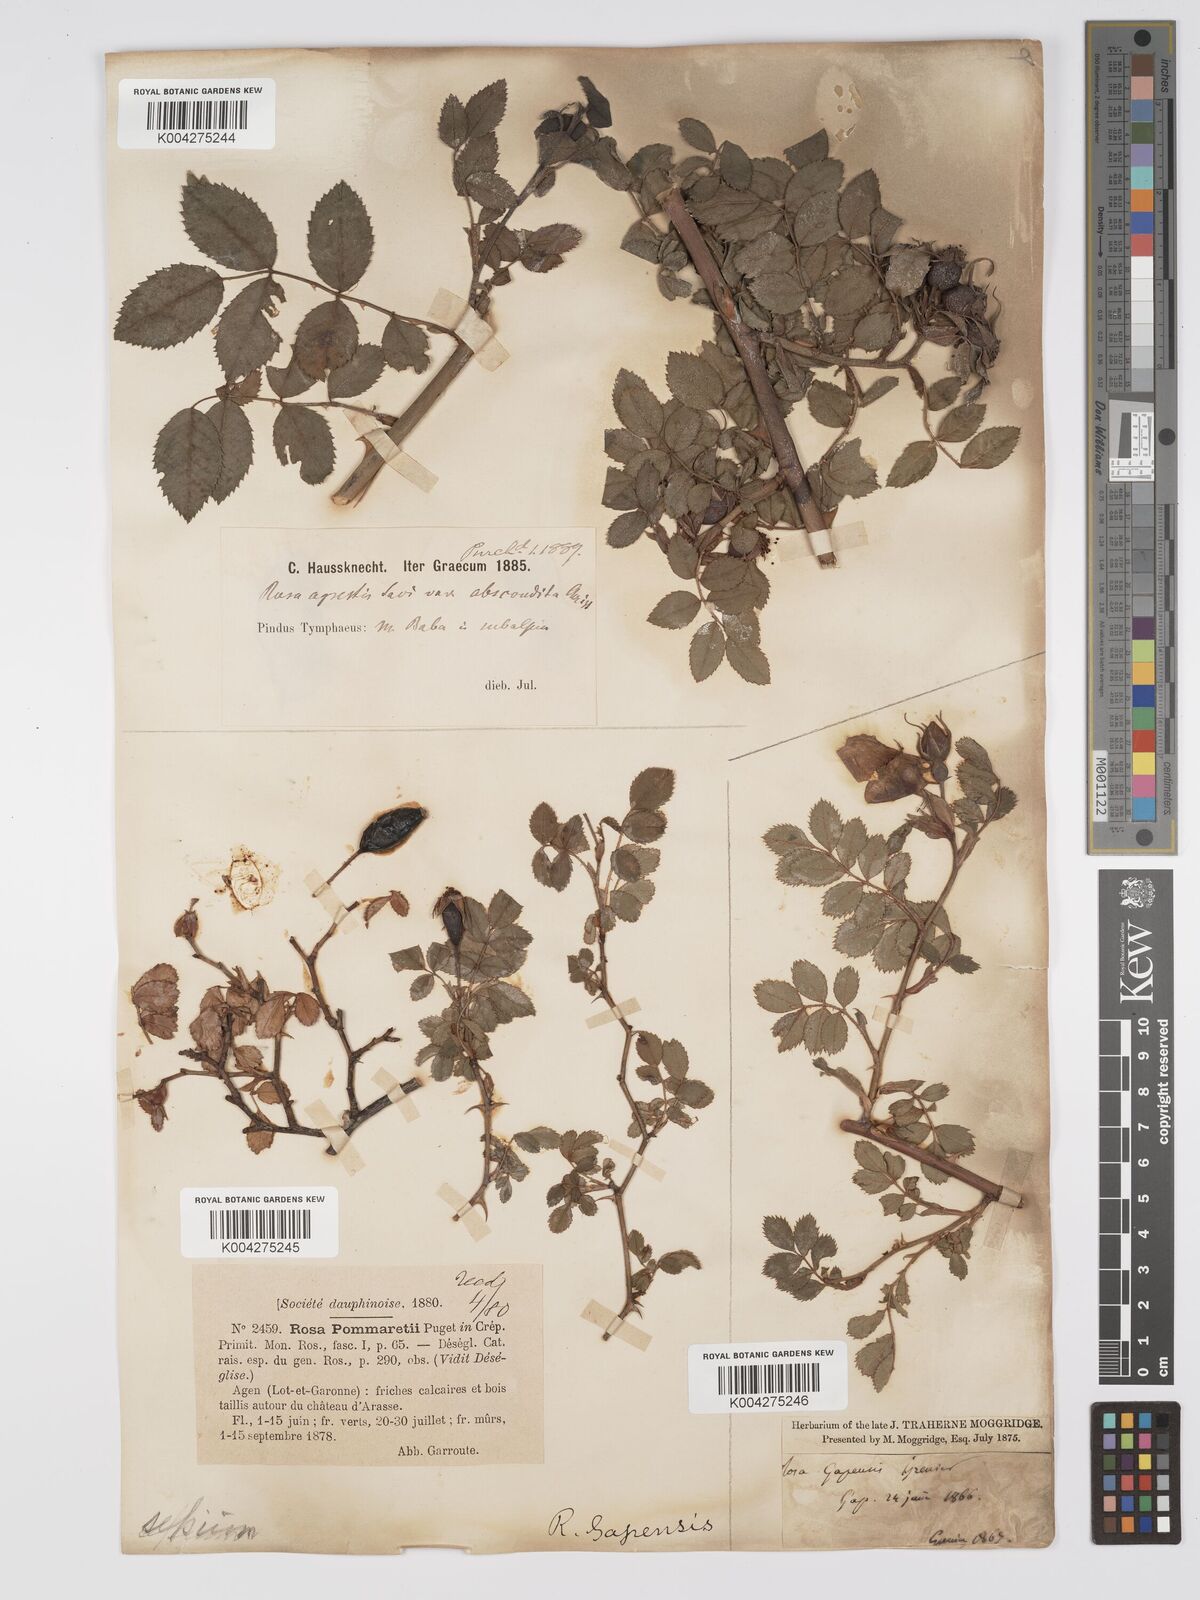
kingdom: Plantae
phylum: Tracheophyta
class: Magnoliopsida
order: Rosales
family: Rosaceae
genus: Rosa
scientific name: Rosa
